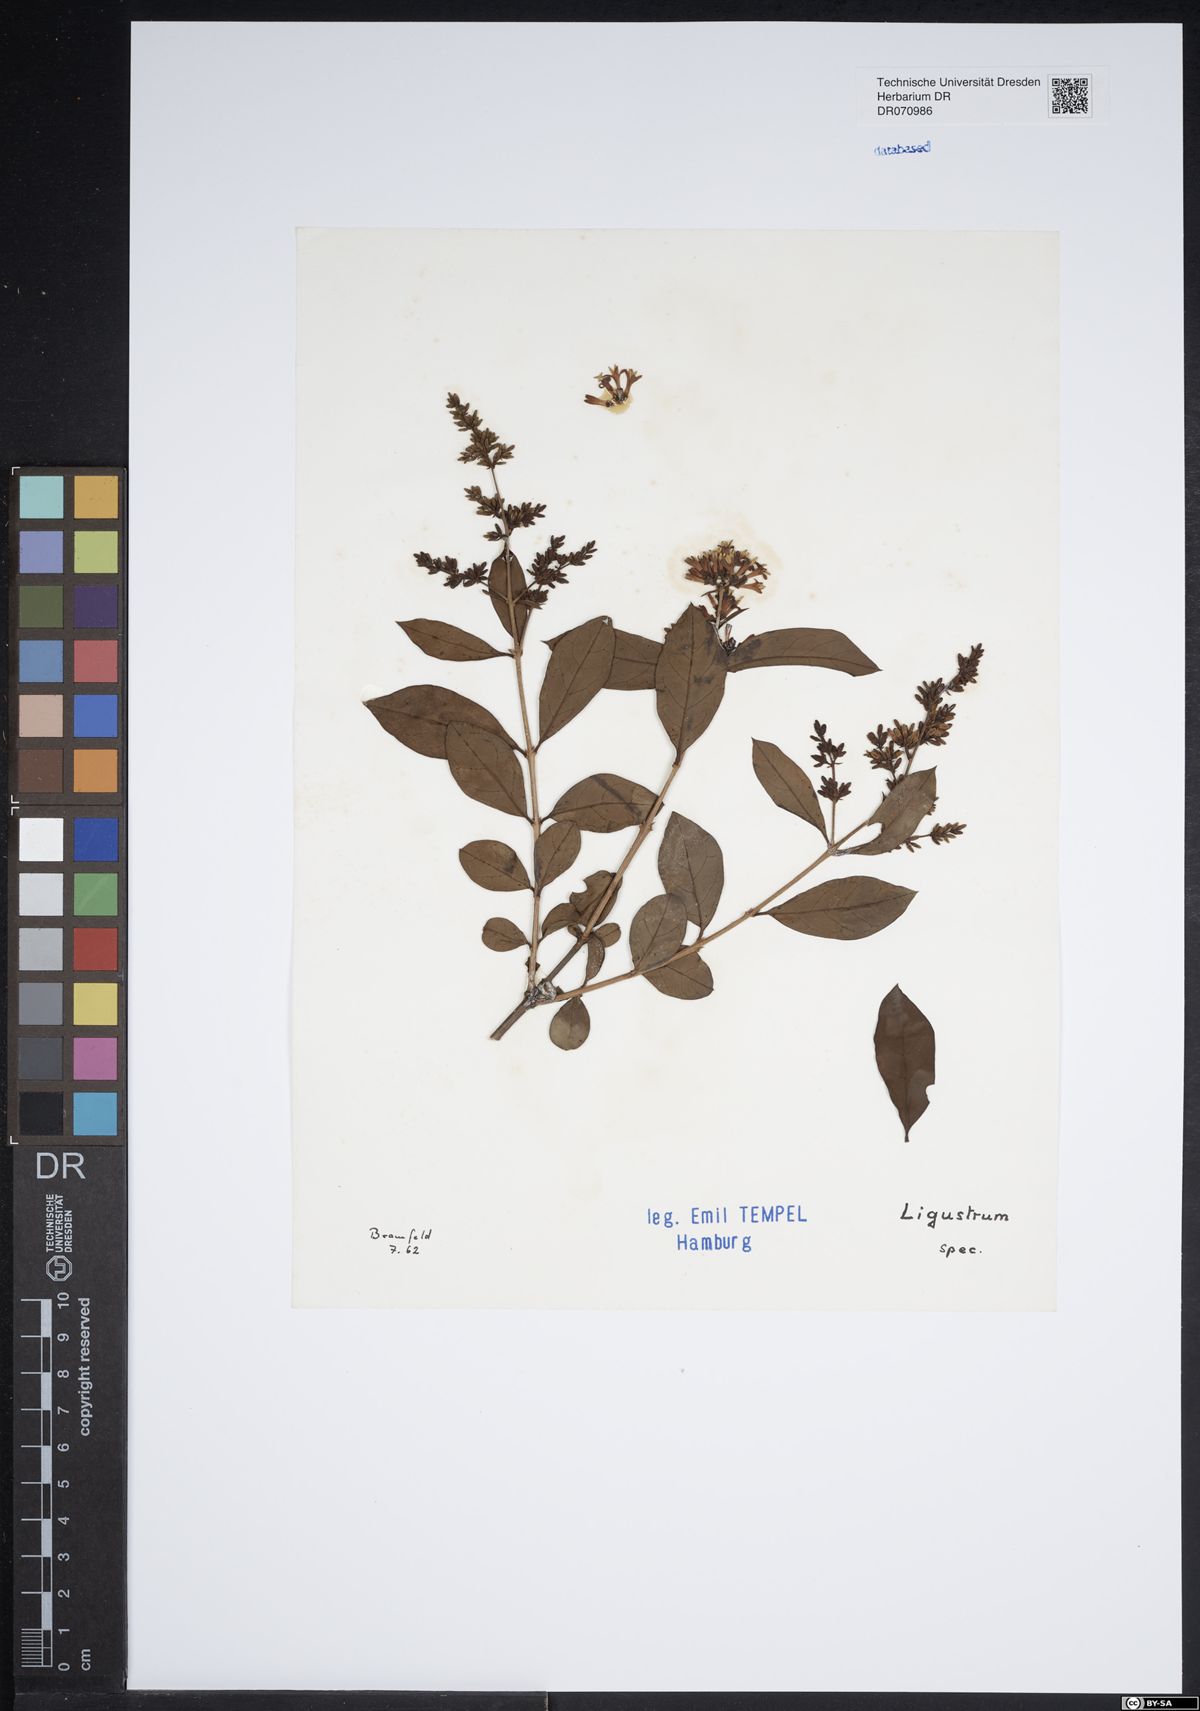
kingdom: Plantae
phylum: Tracheophyta
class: Magnoliopsida
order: Lamiales
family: Oleaceae
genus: Ligustrum
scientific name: Ligustrum
